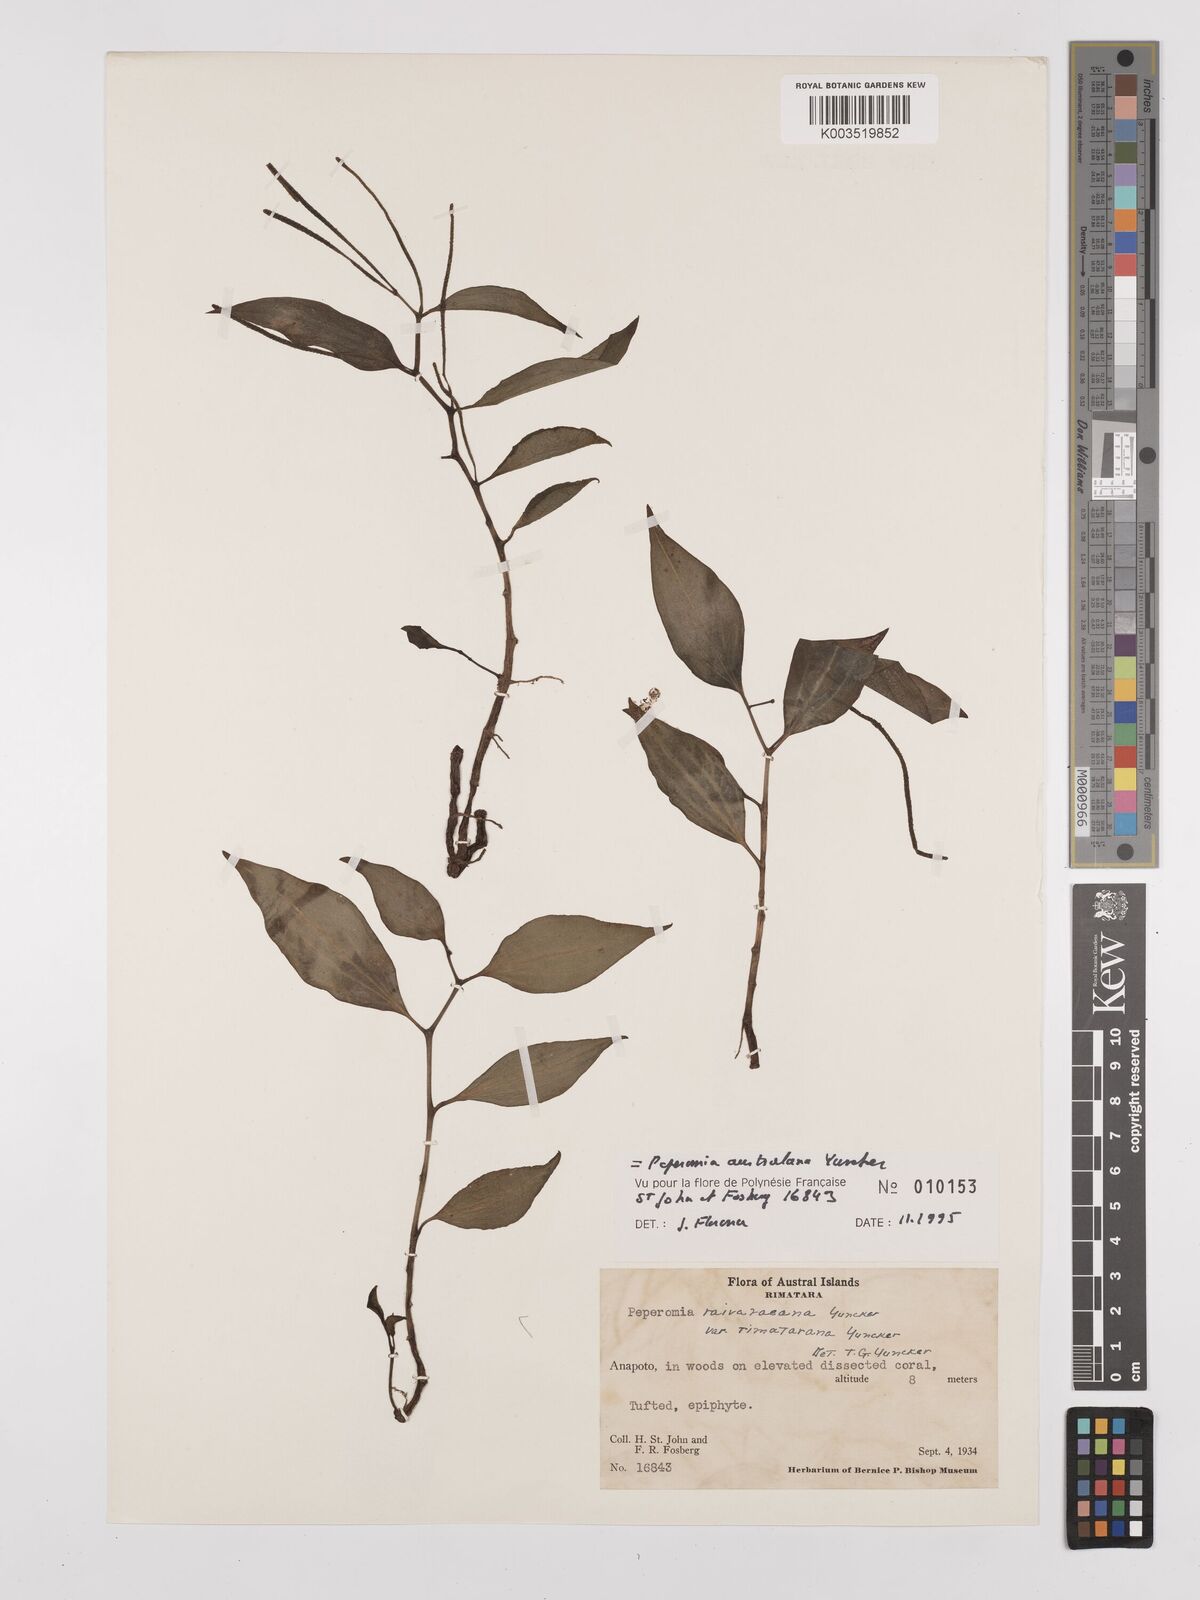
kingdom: Plantae
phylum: Tracheophyta
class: Magnoliopsida
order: Piperales
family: Piperaceae
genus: Peperomia
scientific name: Peperomia australana
